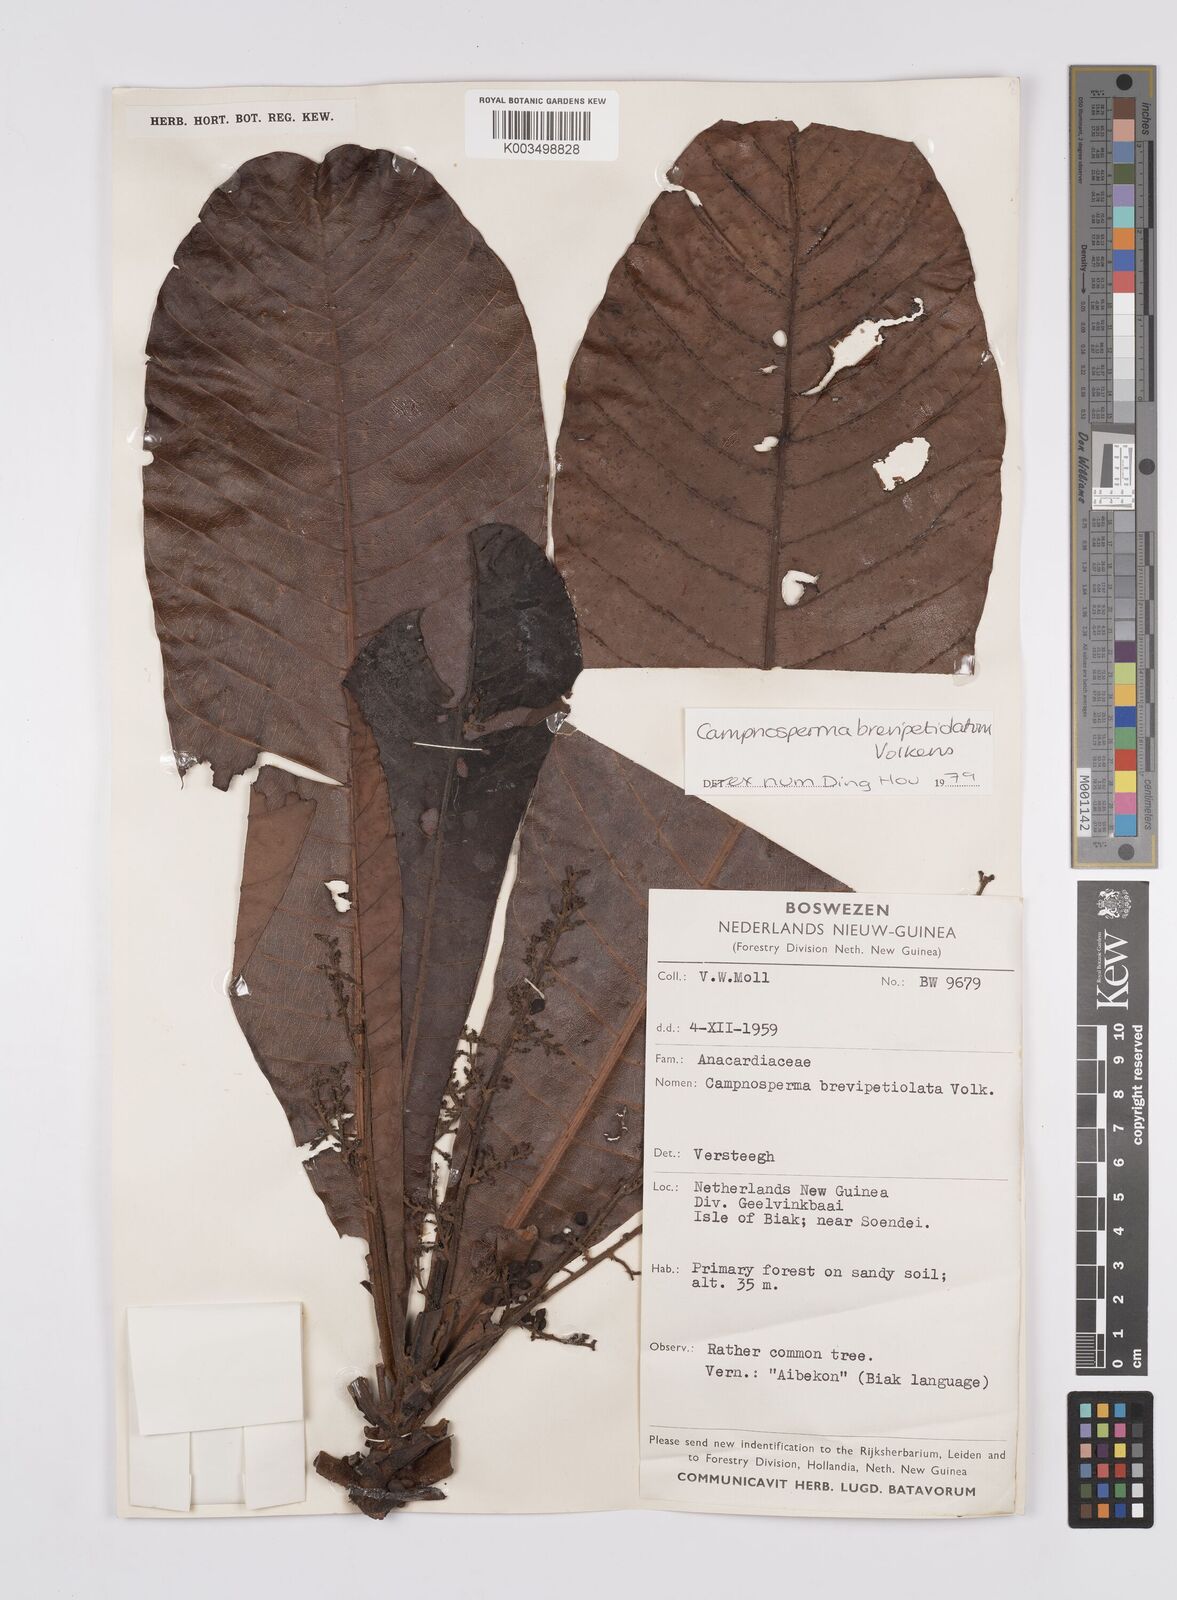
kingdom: Plantae
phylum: Tracheophyta
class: Magnoliopsida
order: Sapindales
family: Anacardiaceae
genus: Campnosperma
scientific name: Campnosperma brevipetiolatum
